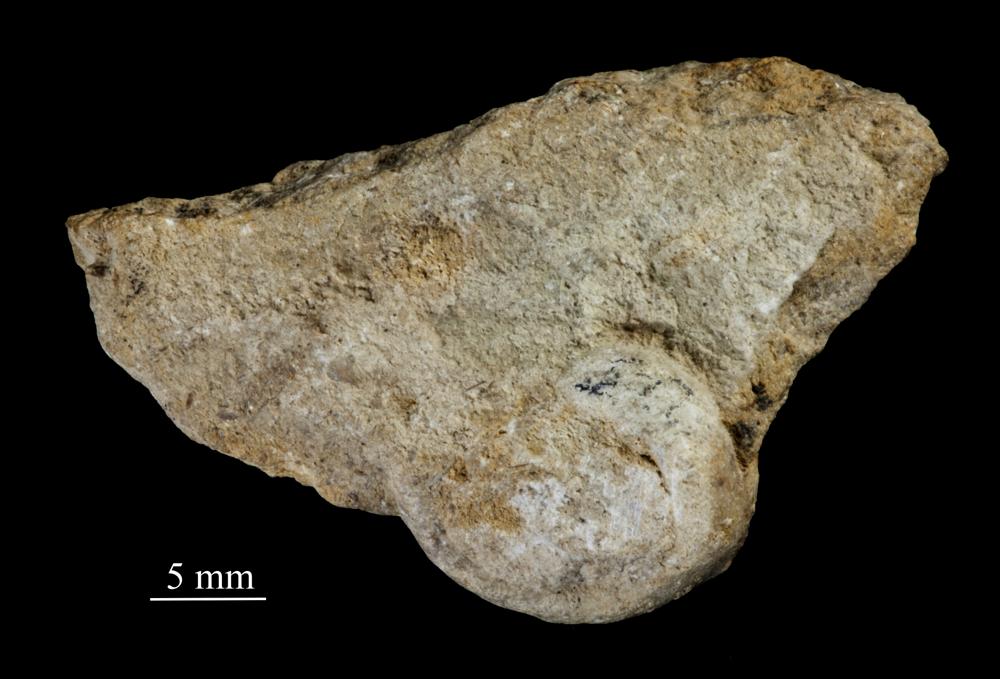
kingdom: Animalia
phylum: Mollusca
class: Gastropoda
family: Bucaniidae
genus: Bucania
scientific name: Bucania Bellerophon radiata
